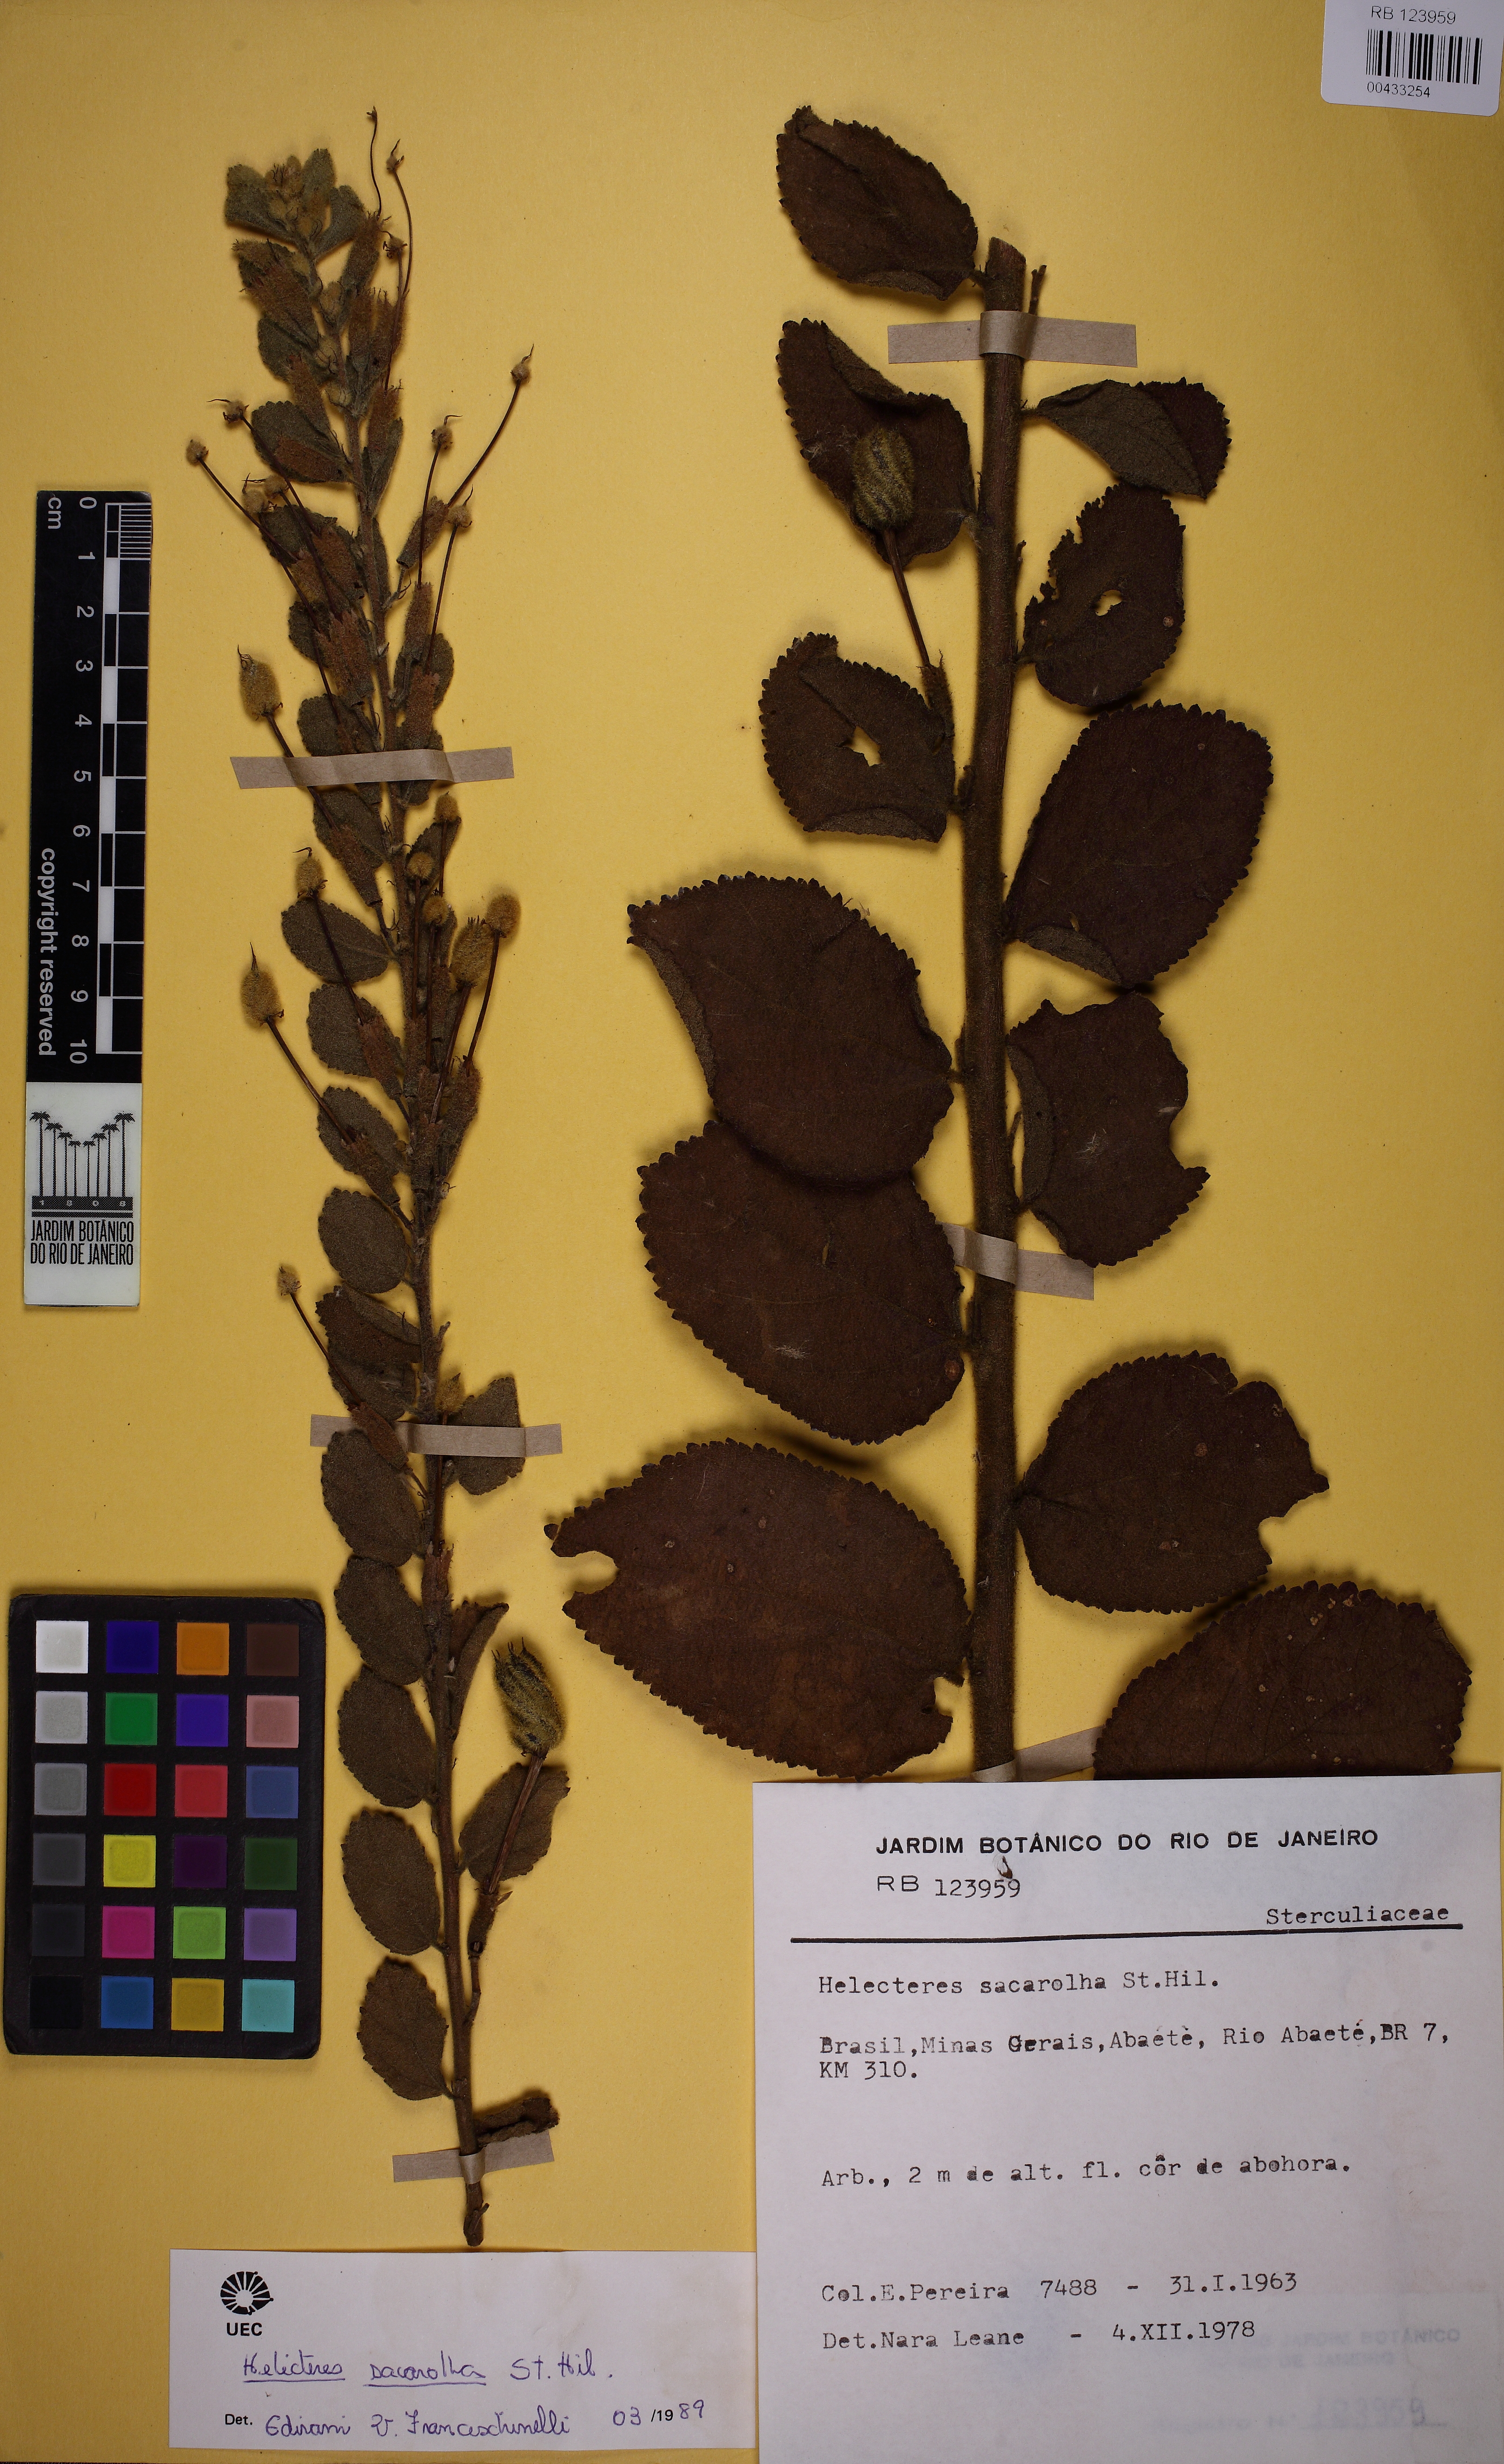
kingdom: Plantae
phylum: Tracheophyta
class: Magnoliopsida
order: Malvales
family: Malvaceae
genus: Helicteres
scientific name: Helicteres sacarolha
